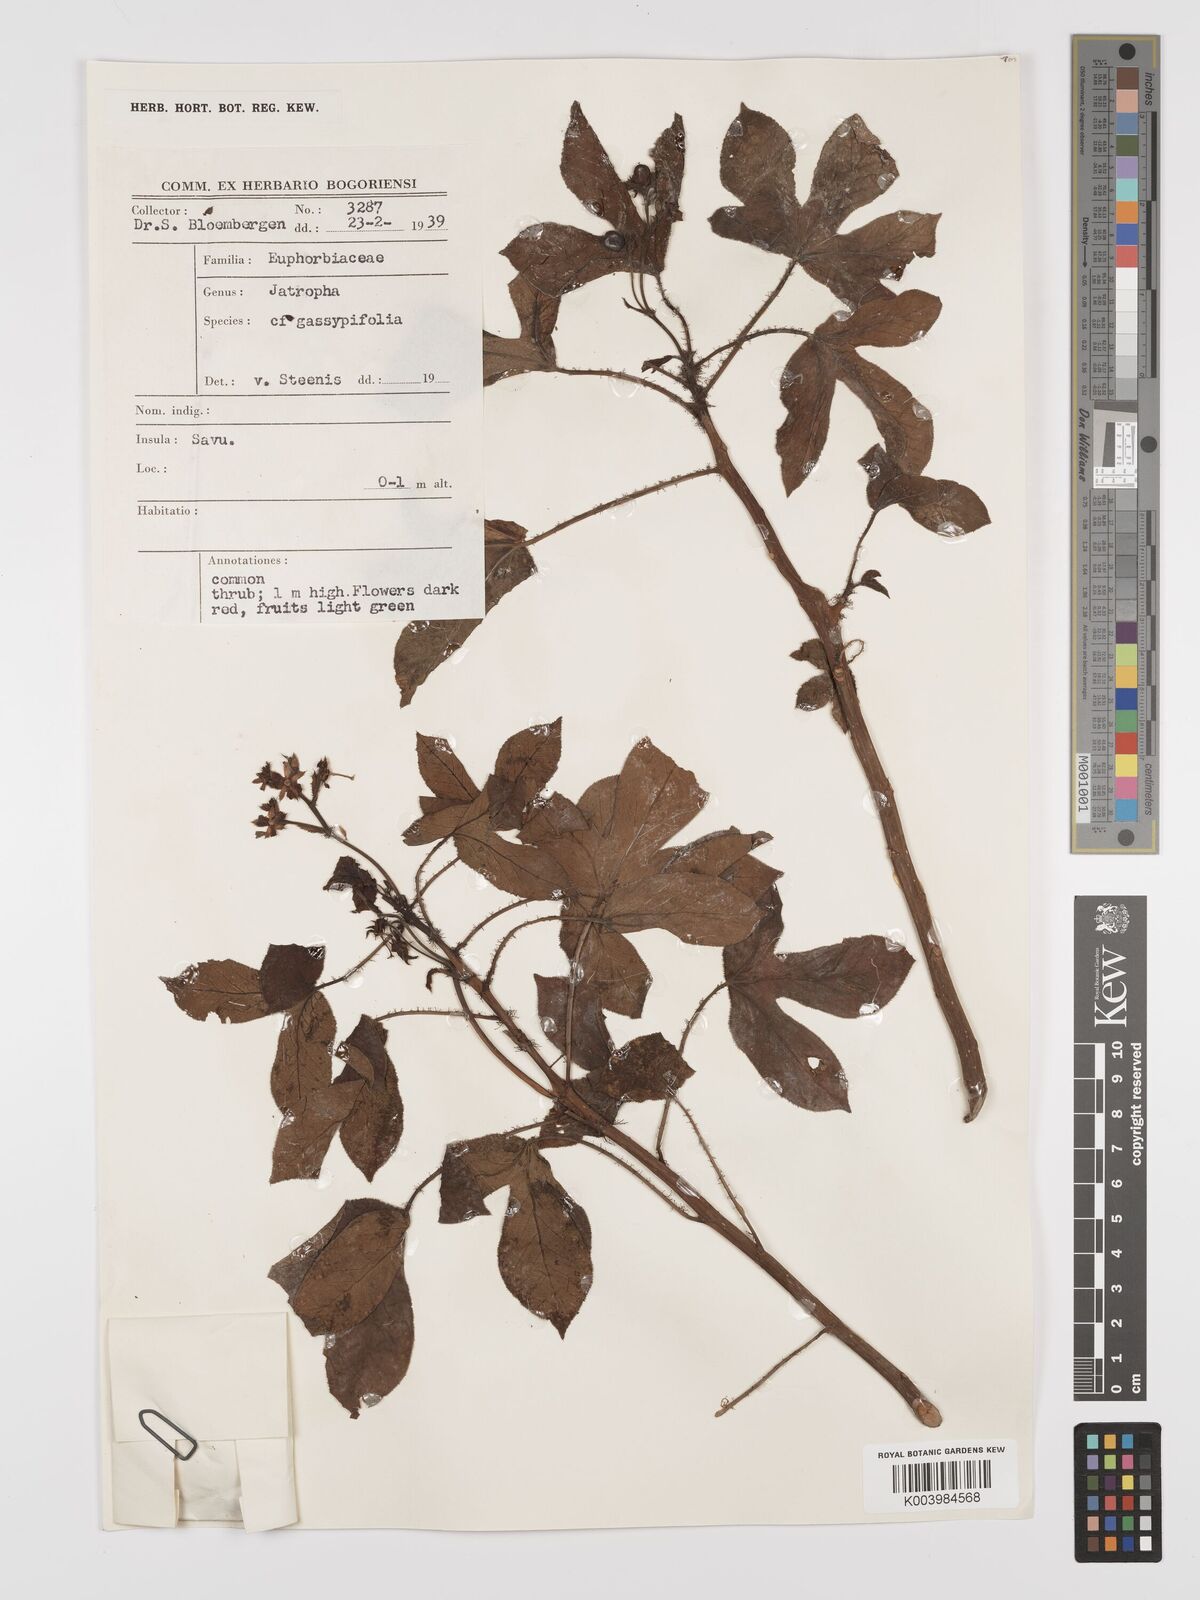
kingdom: Plantae
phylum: Tracheophyta
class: Magnoliopsida
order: Malpighiales
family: Euphorbiaceae
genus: Jatropha
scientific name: Jatropha gossypiifolia
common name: Bellyache bush
